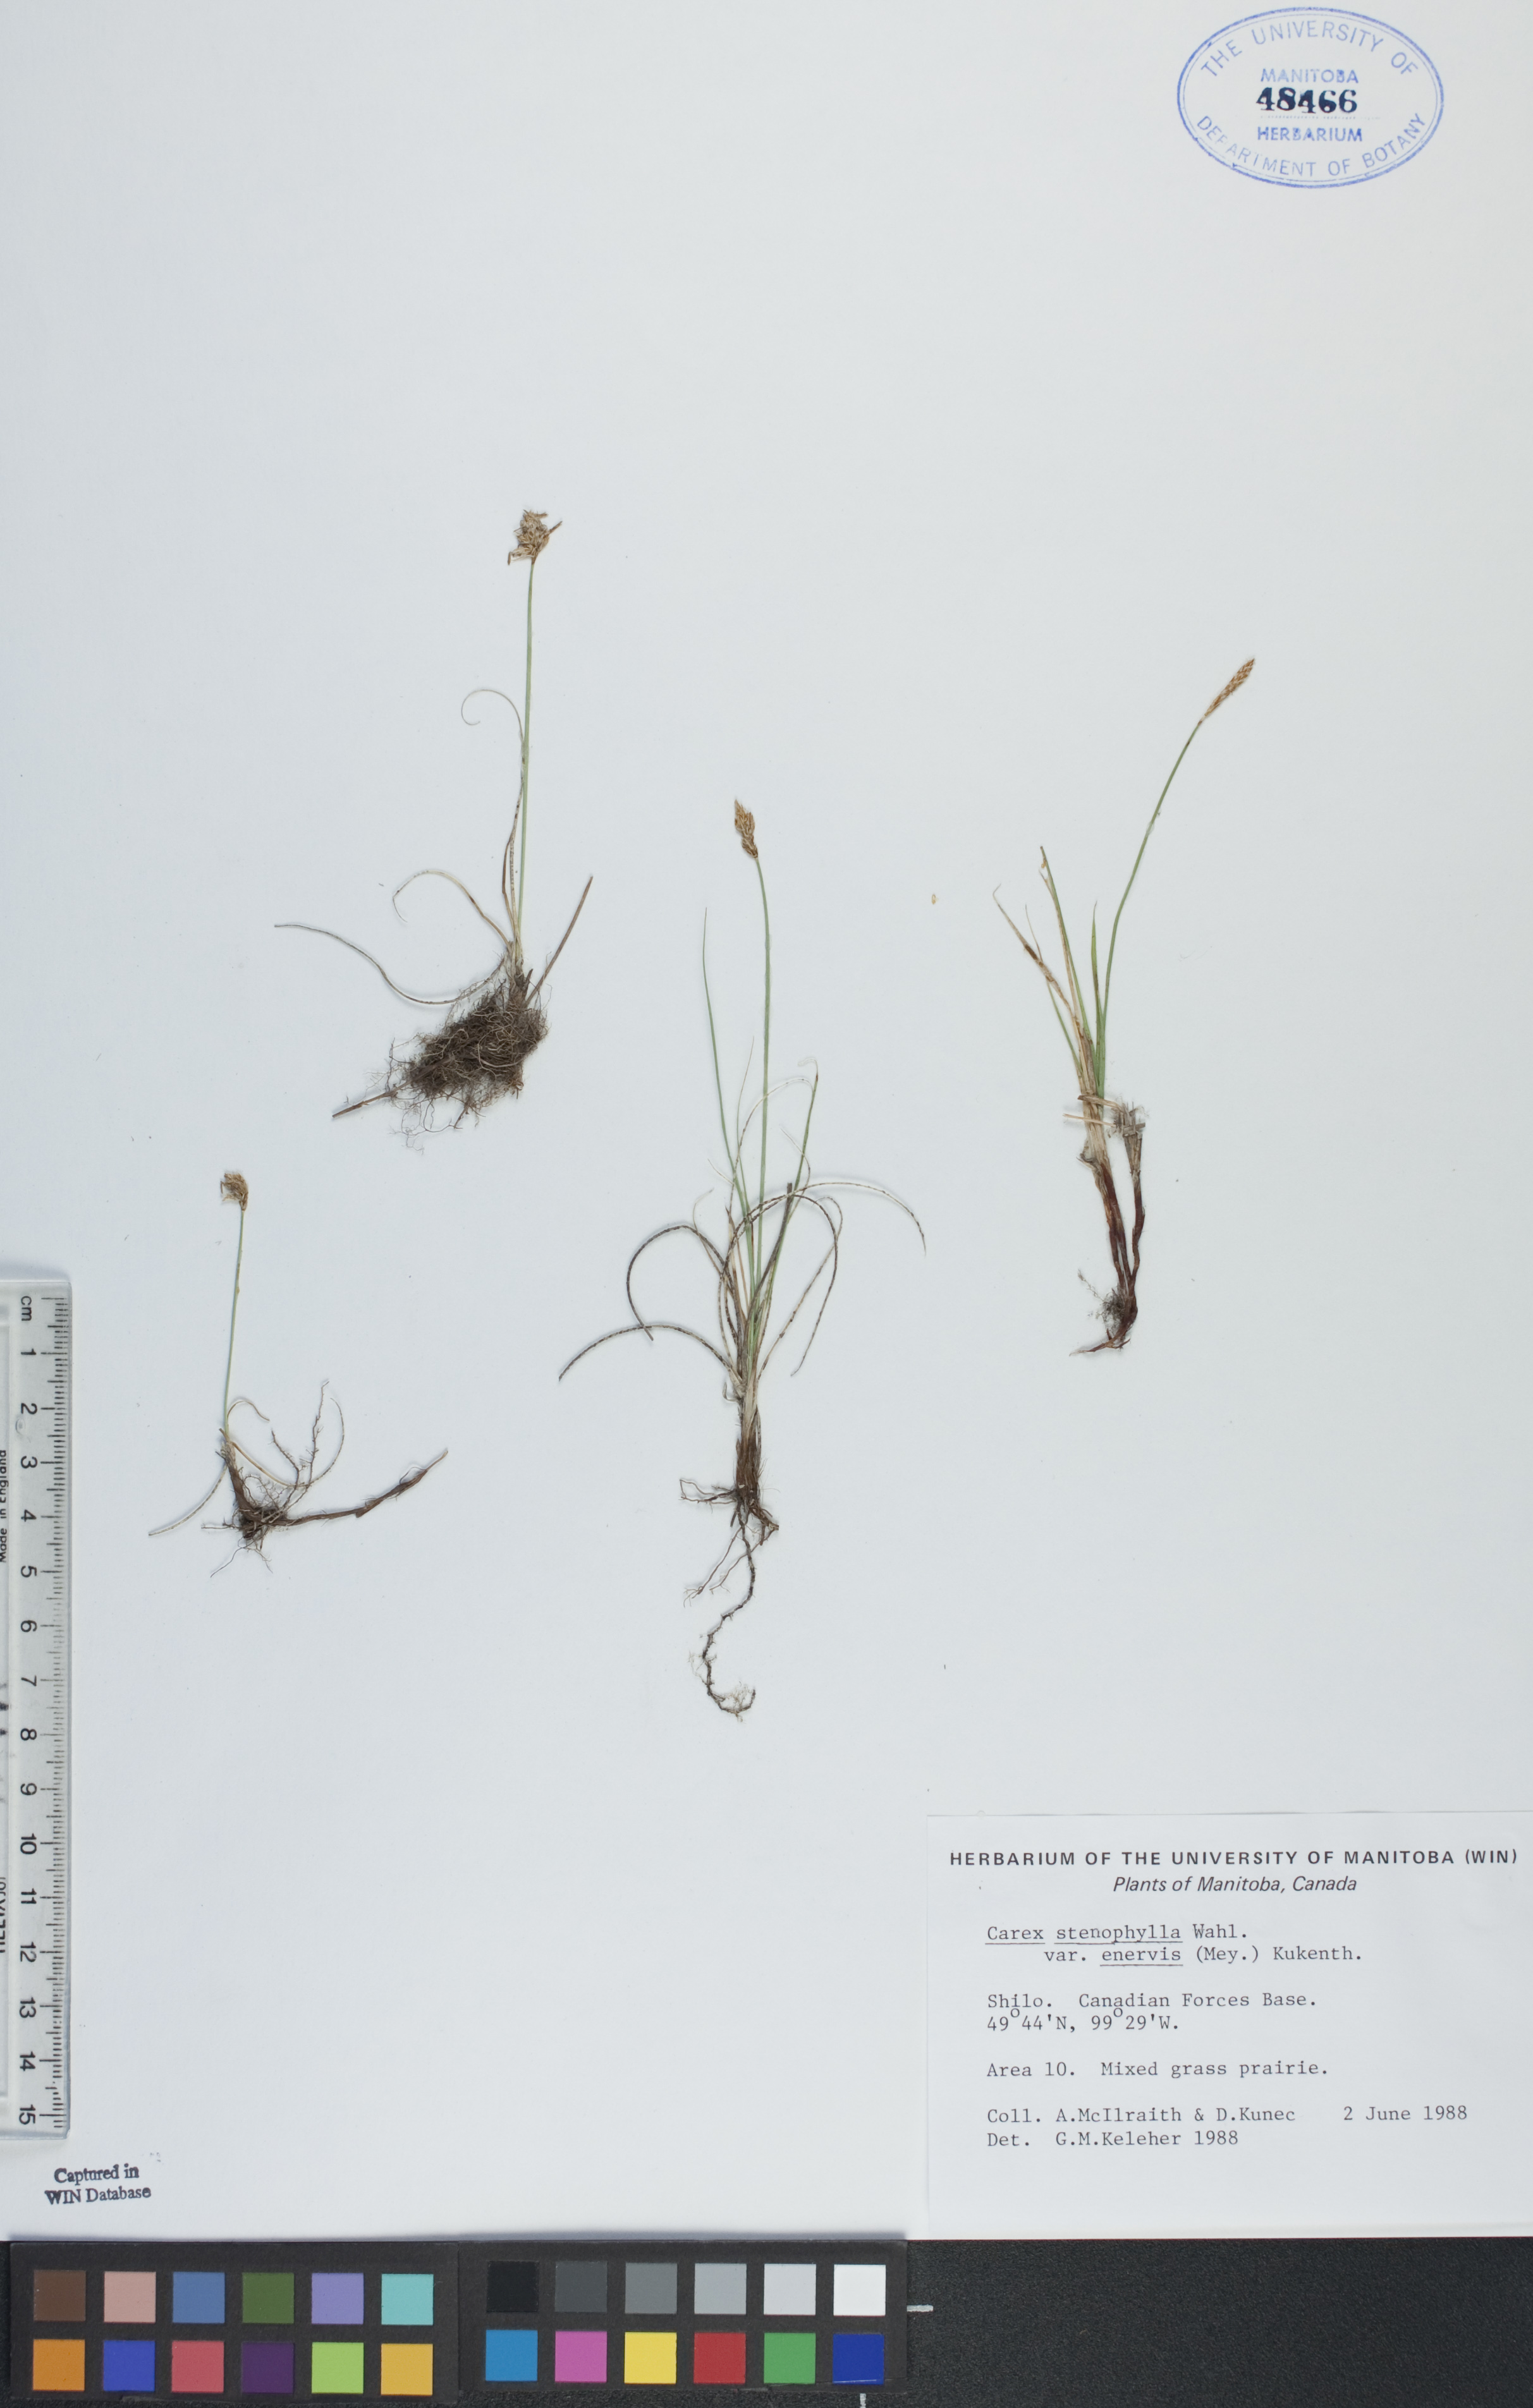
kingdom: Plantae
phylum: Tracheophyta
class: Liliopsida
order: Poales
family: Cyperaceae
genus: Carex
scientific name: Carex enervis
